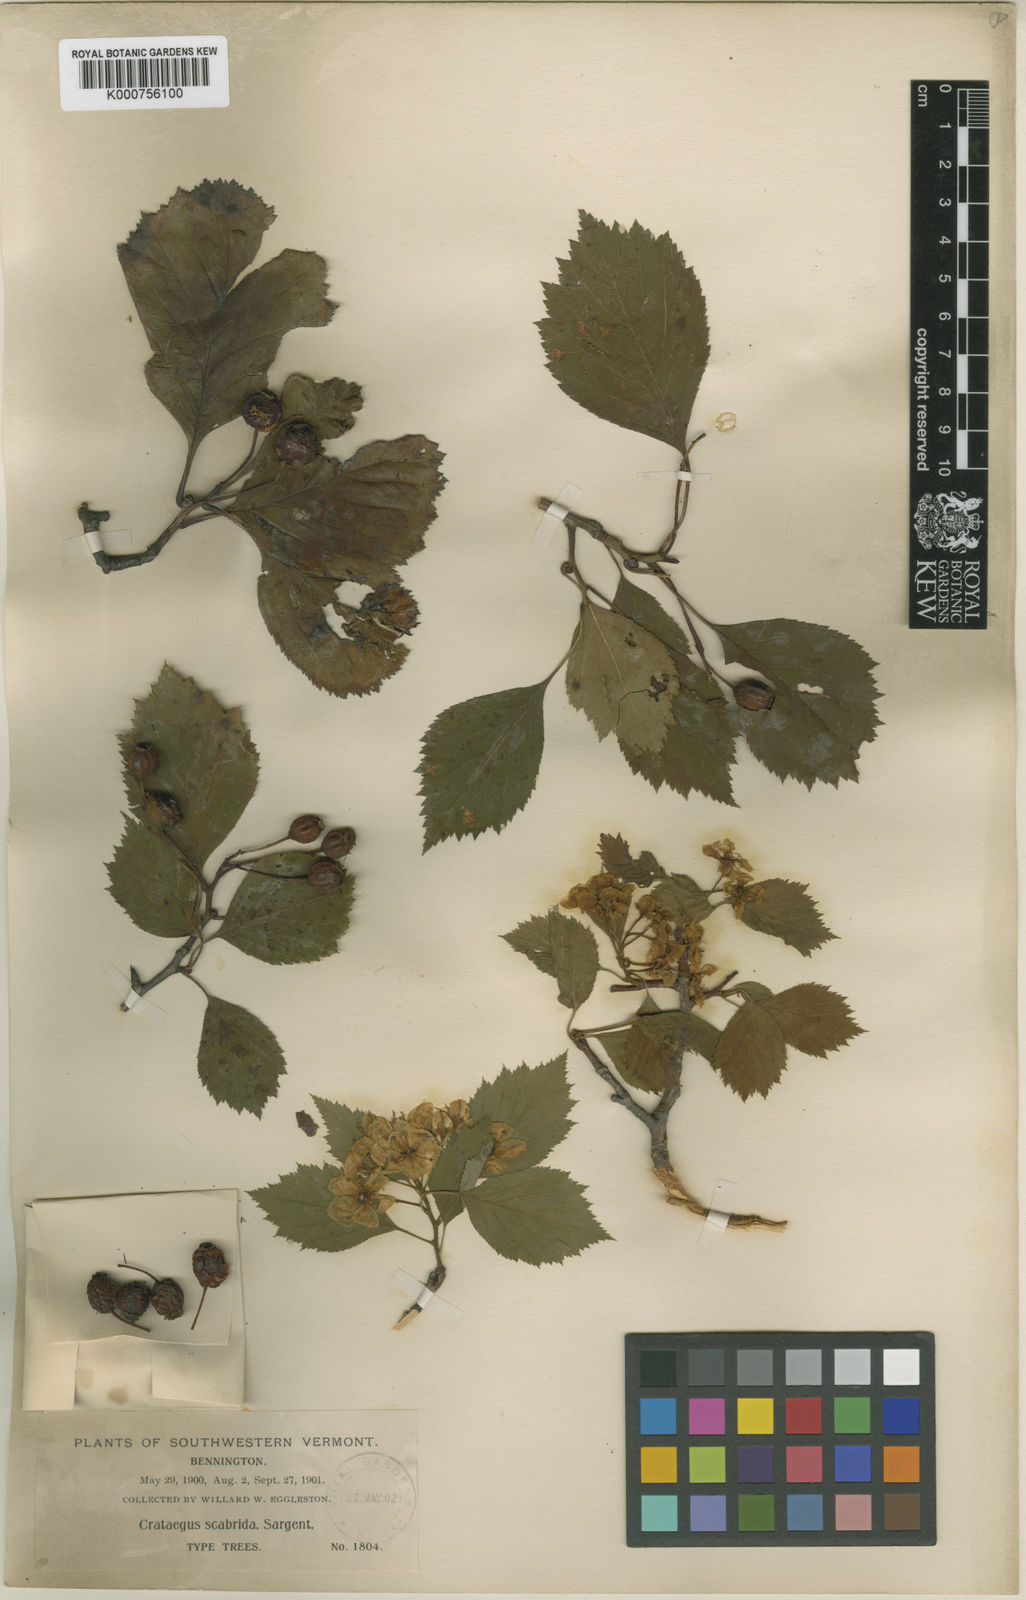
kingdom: Plantae
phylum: Tracheophyta
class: Magnoliopsida
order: Rosales
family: Rosaceae
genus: Crataegus
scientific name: Crataegus scabrida
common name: Rough hawthorn
